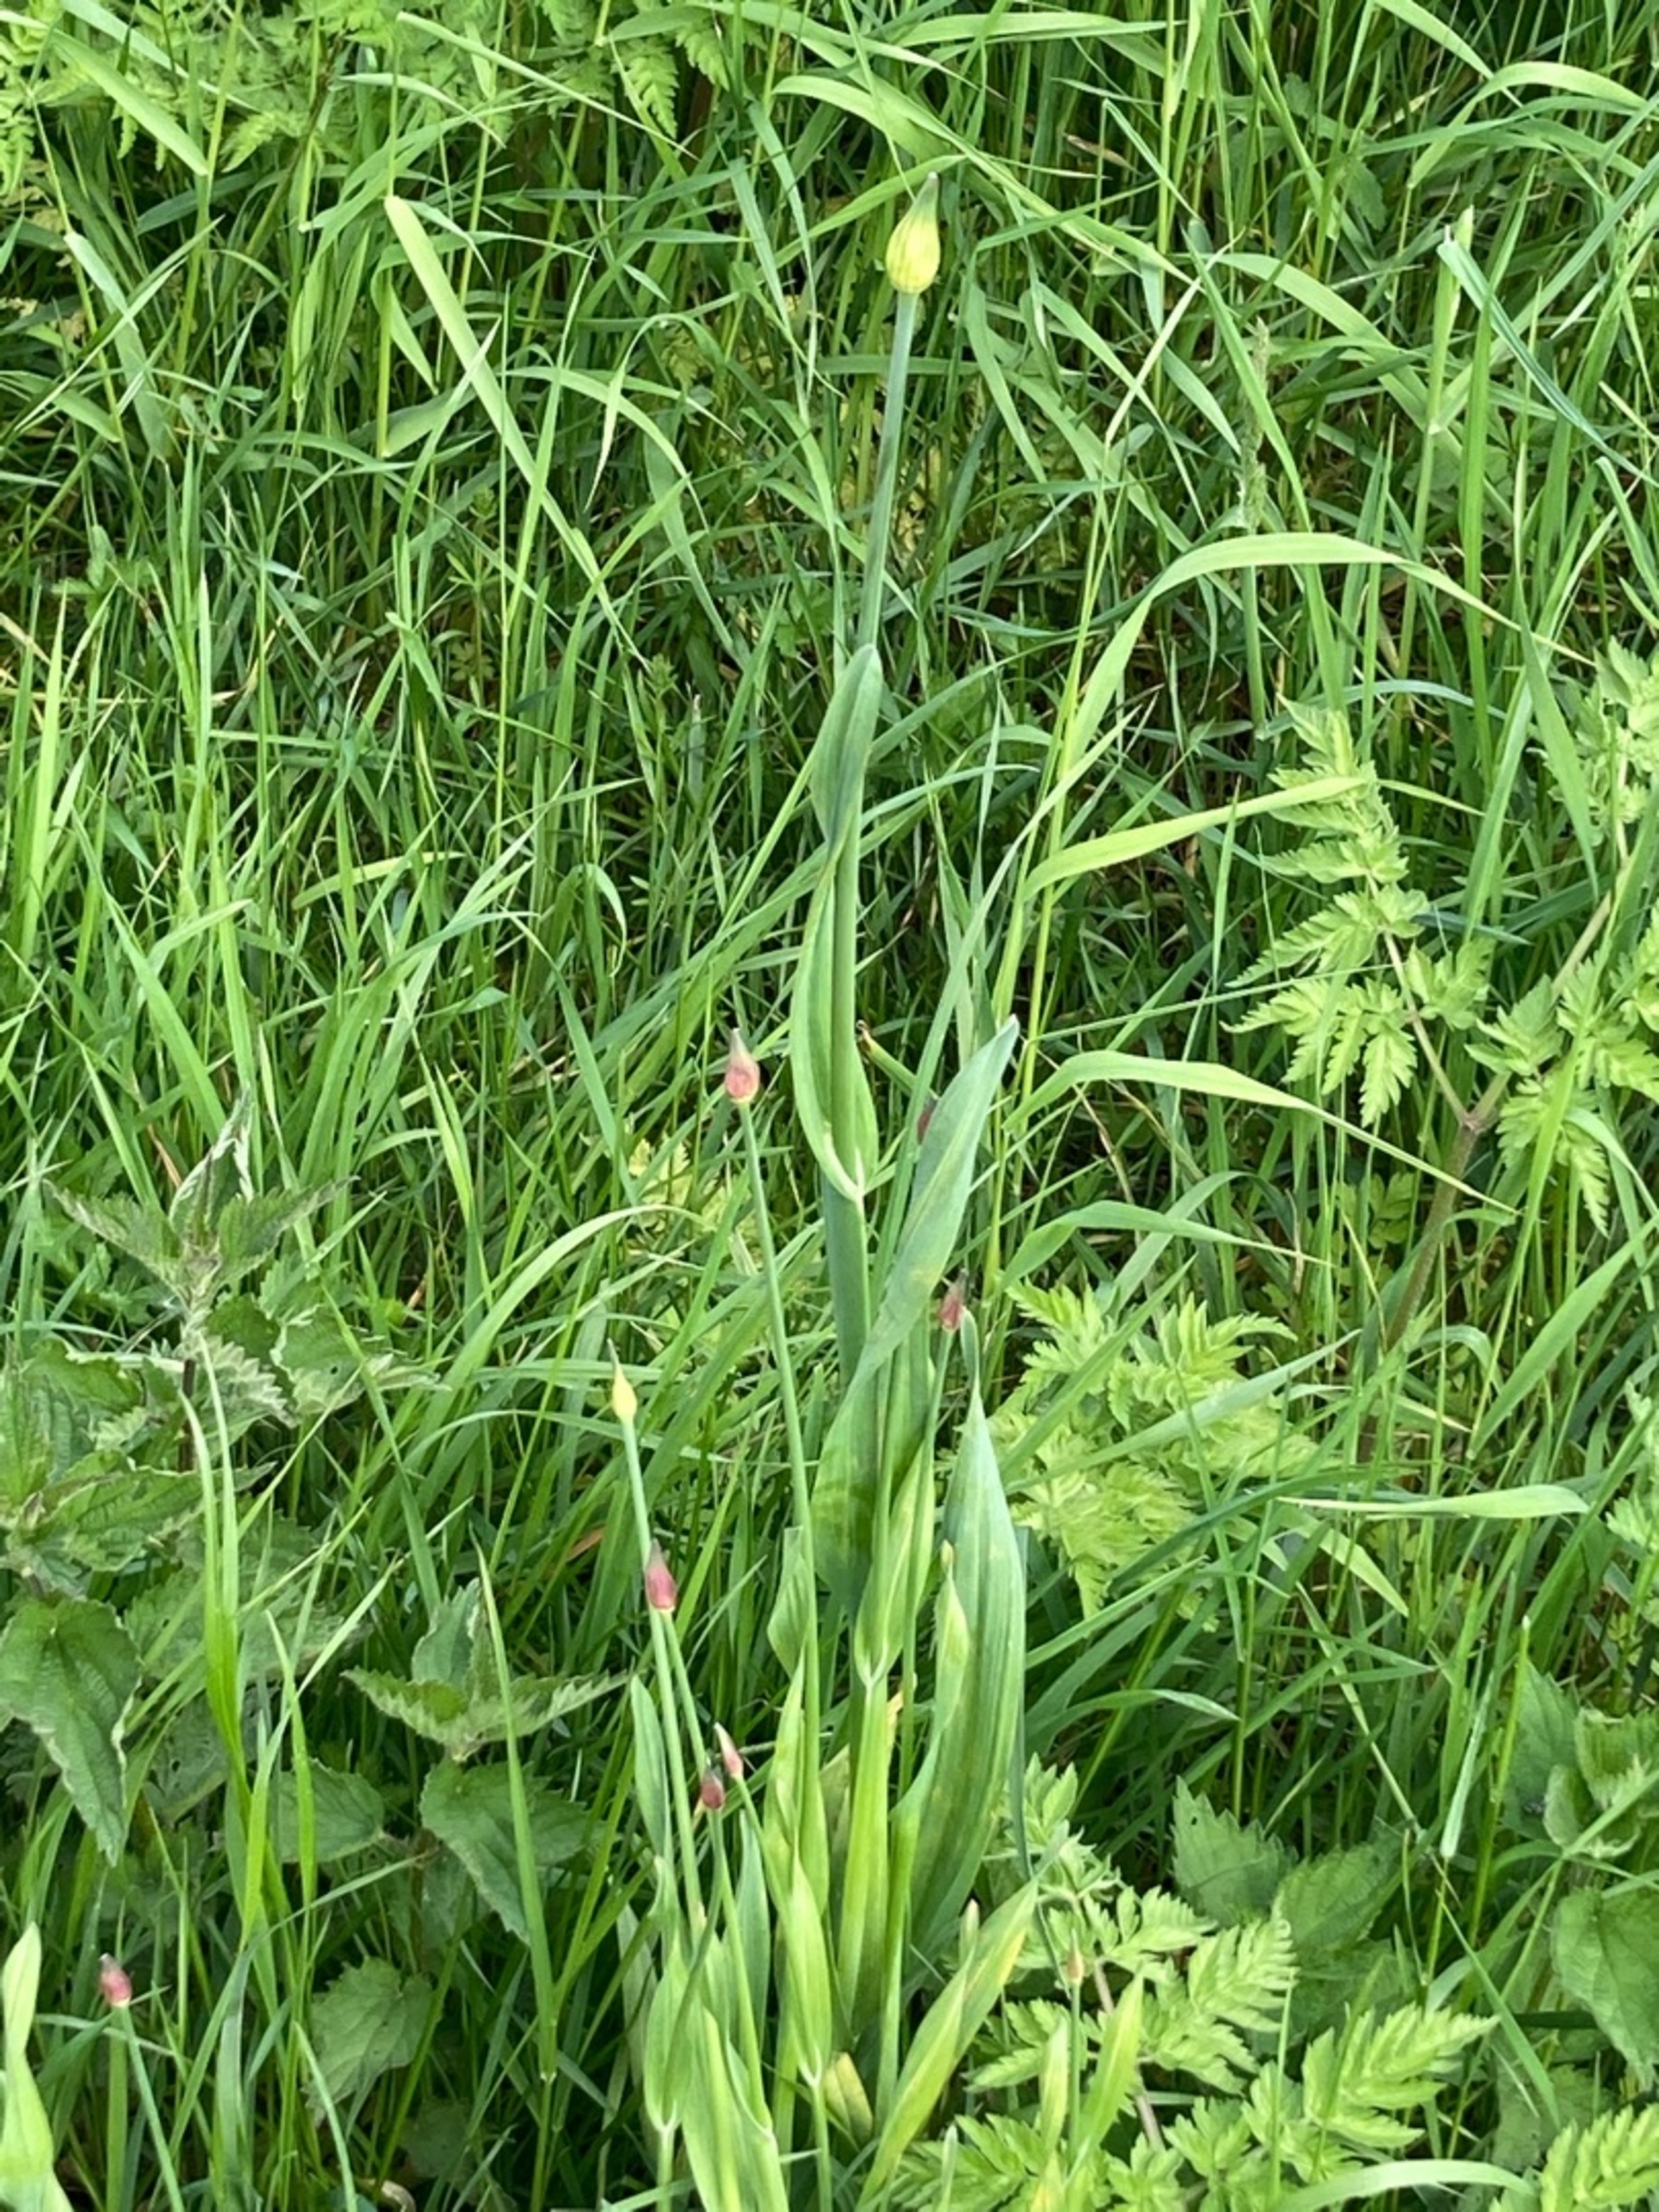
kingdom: Plantae
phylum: Tracheophyta
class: Liliopsida
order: Asparagales
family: Amaryllidaceae
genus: Allium
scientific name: Allium scorodoprasum
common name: Skov-løg
